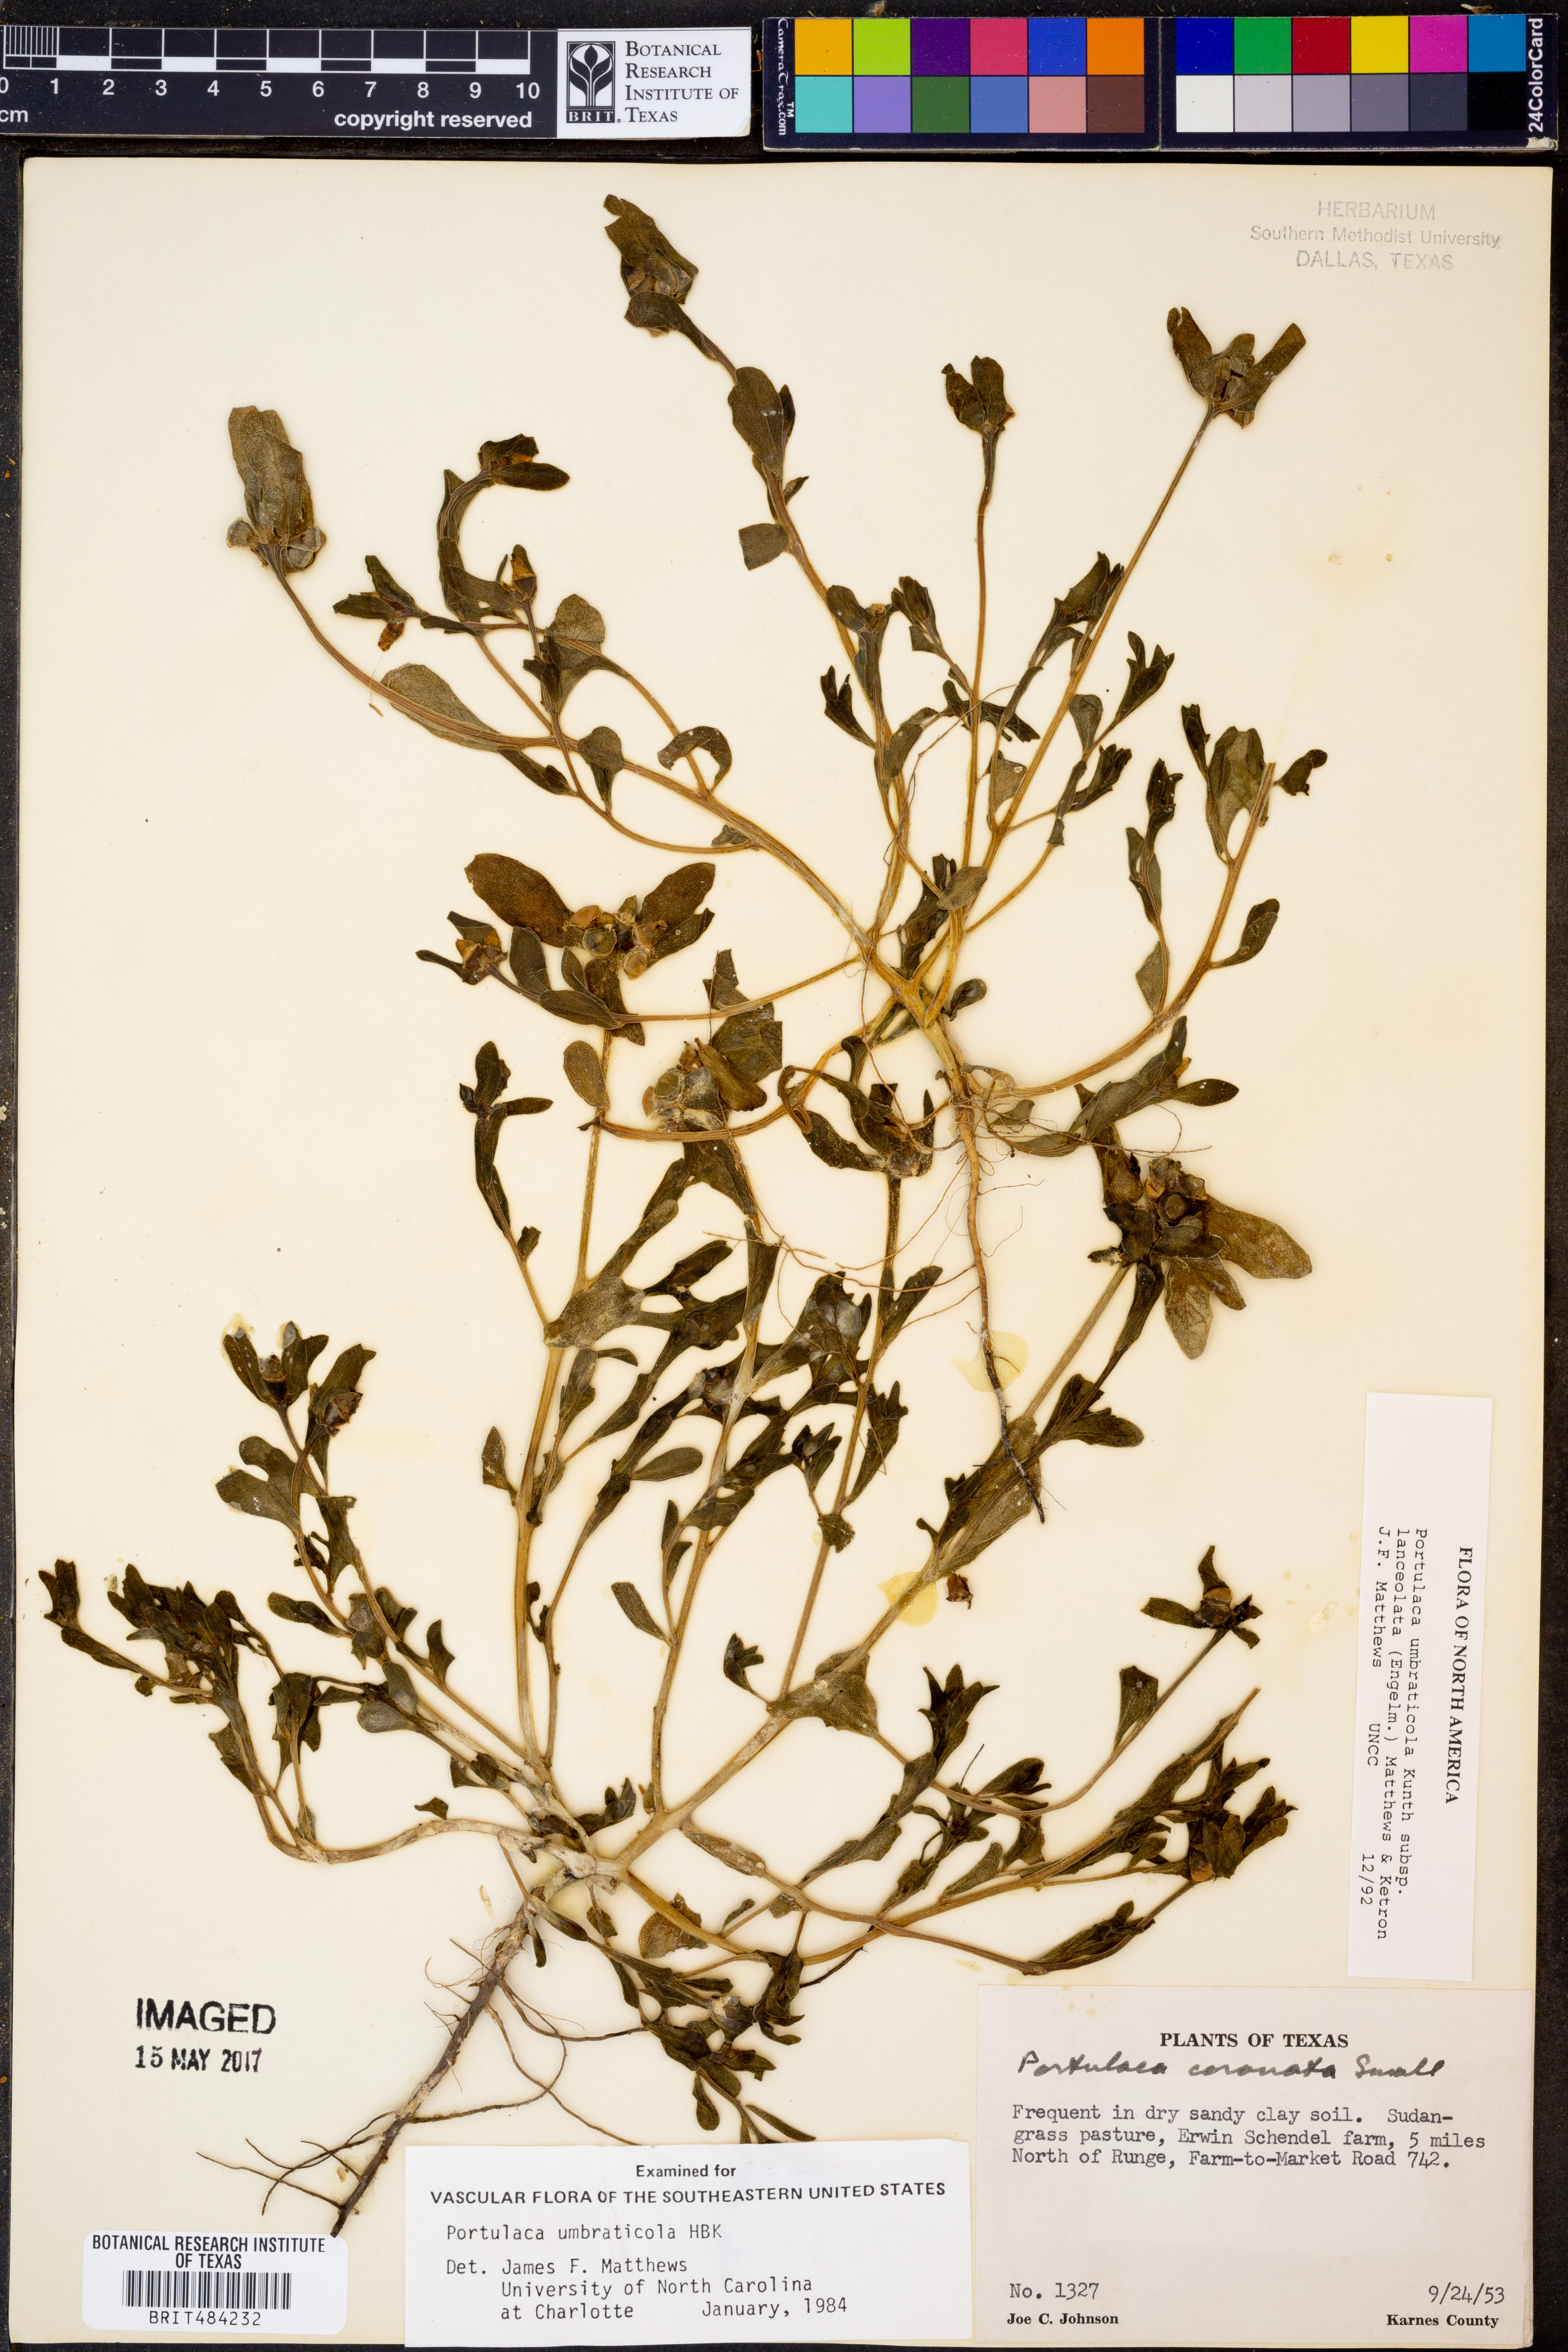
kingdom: Plantae
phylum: Tracheophyta
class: Magnoliopsida
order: Caryophyllales
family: Portulacaceae
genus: Portulaca
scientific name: Portulaca umbraticola
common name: Wingpod purslane
